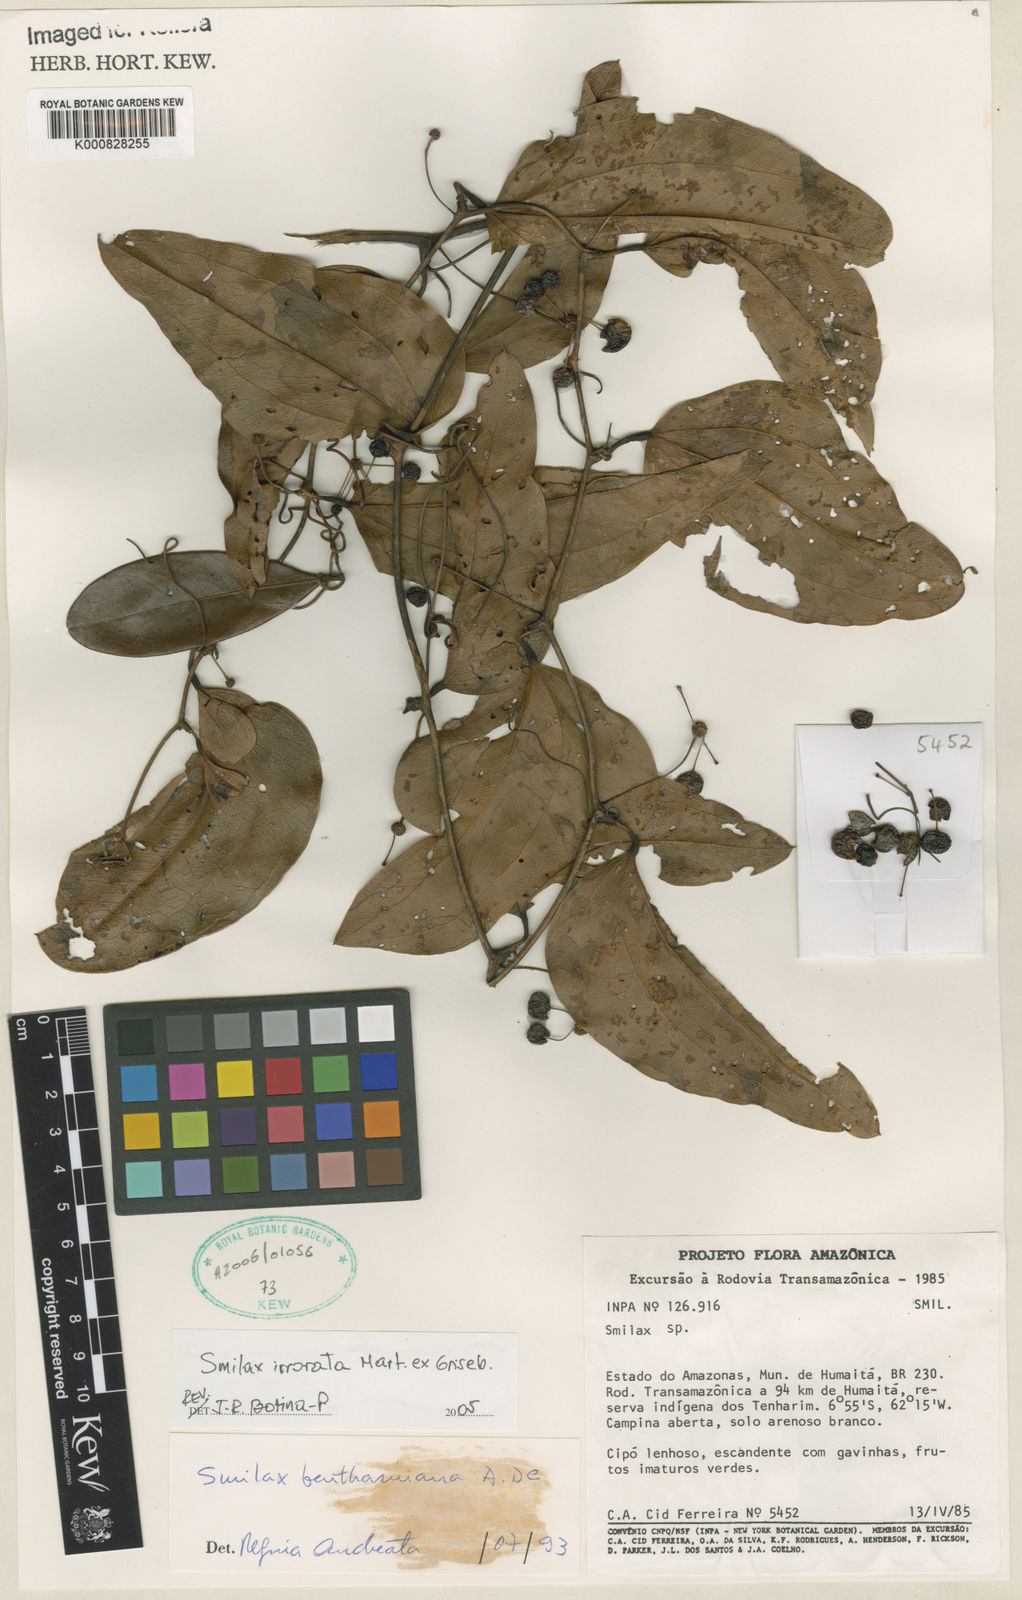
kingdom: Plantae
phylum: Tracheophyta
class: Liliopsida
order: Liliales
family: Smilacaceae
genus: Smilax
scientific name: Smilax irrorata
